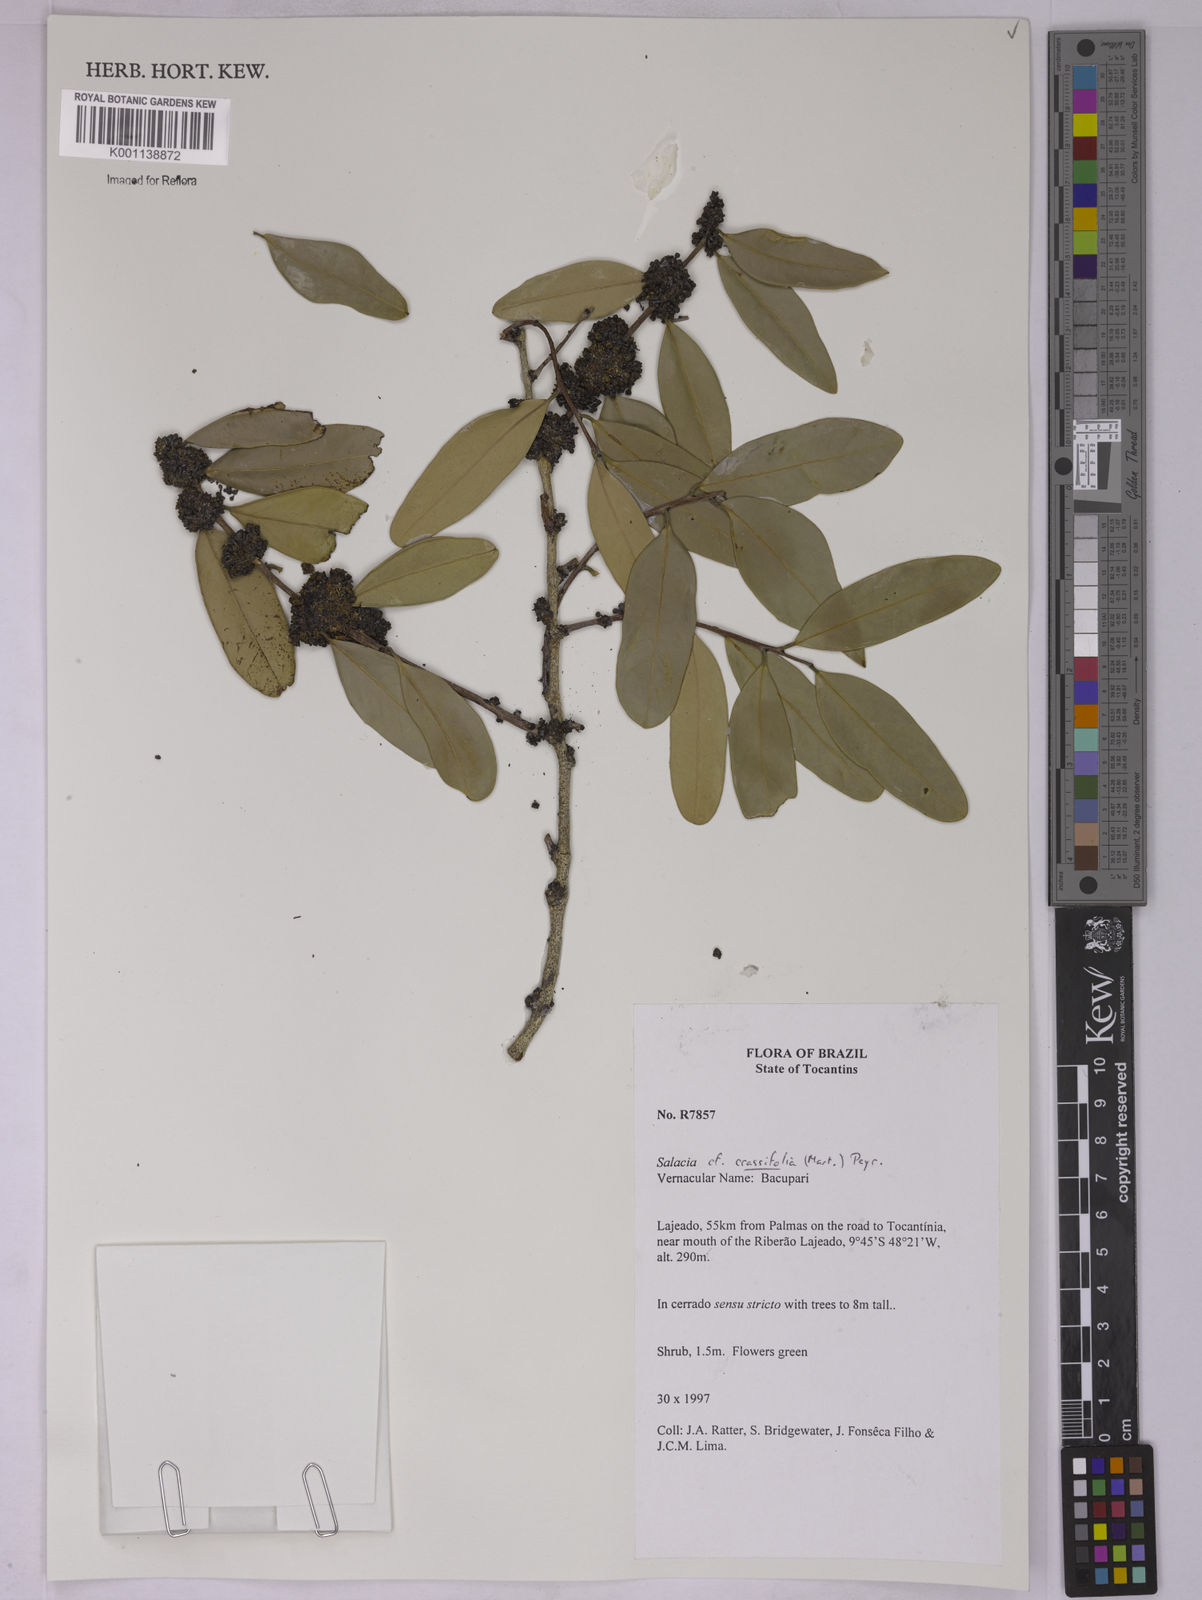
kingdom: Plantae
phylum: Tracheophyta
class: Magnoliopsida
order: Celastrales
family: Celastraceae
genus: Salacia
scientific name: Salacia crassifolia
